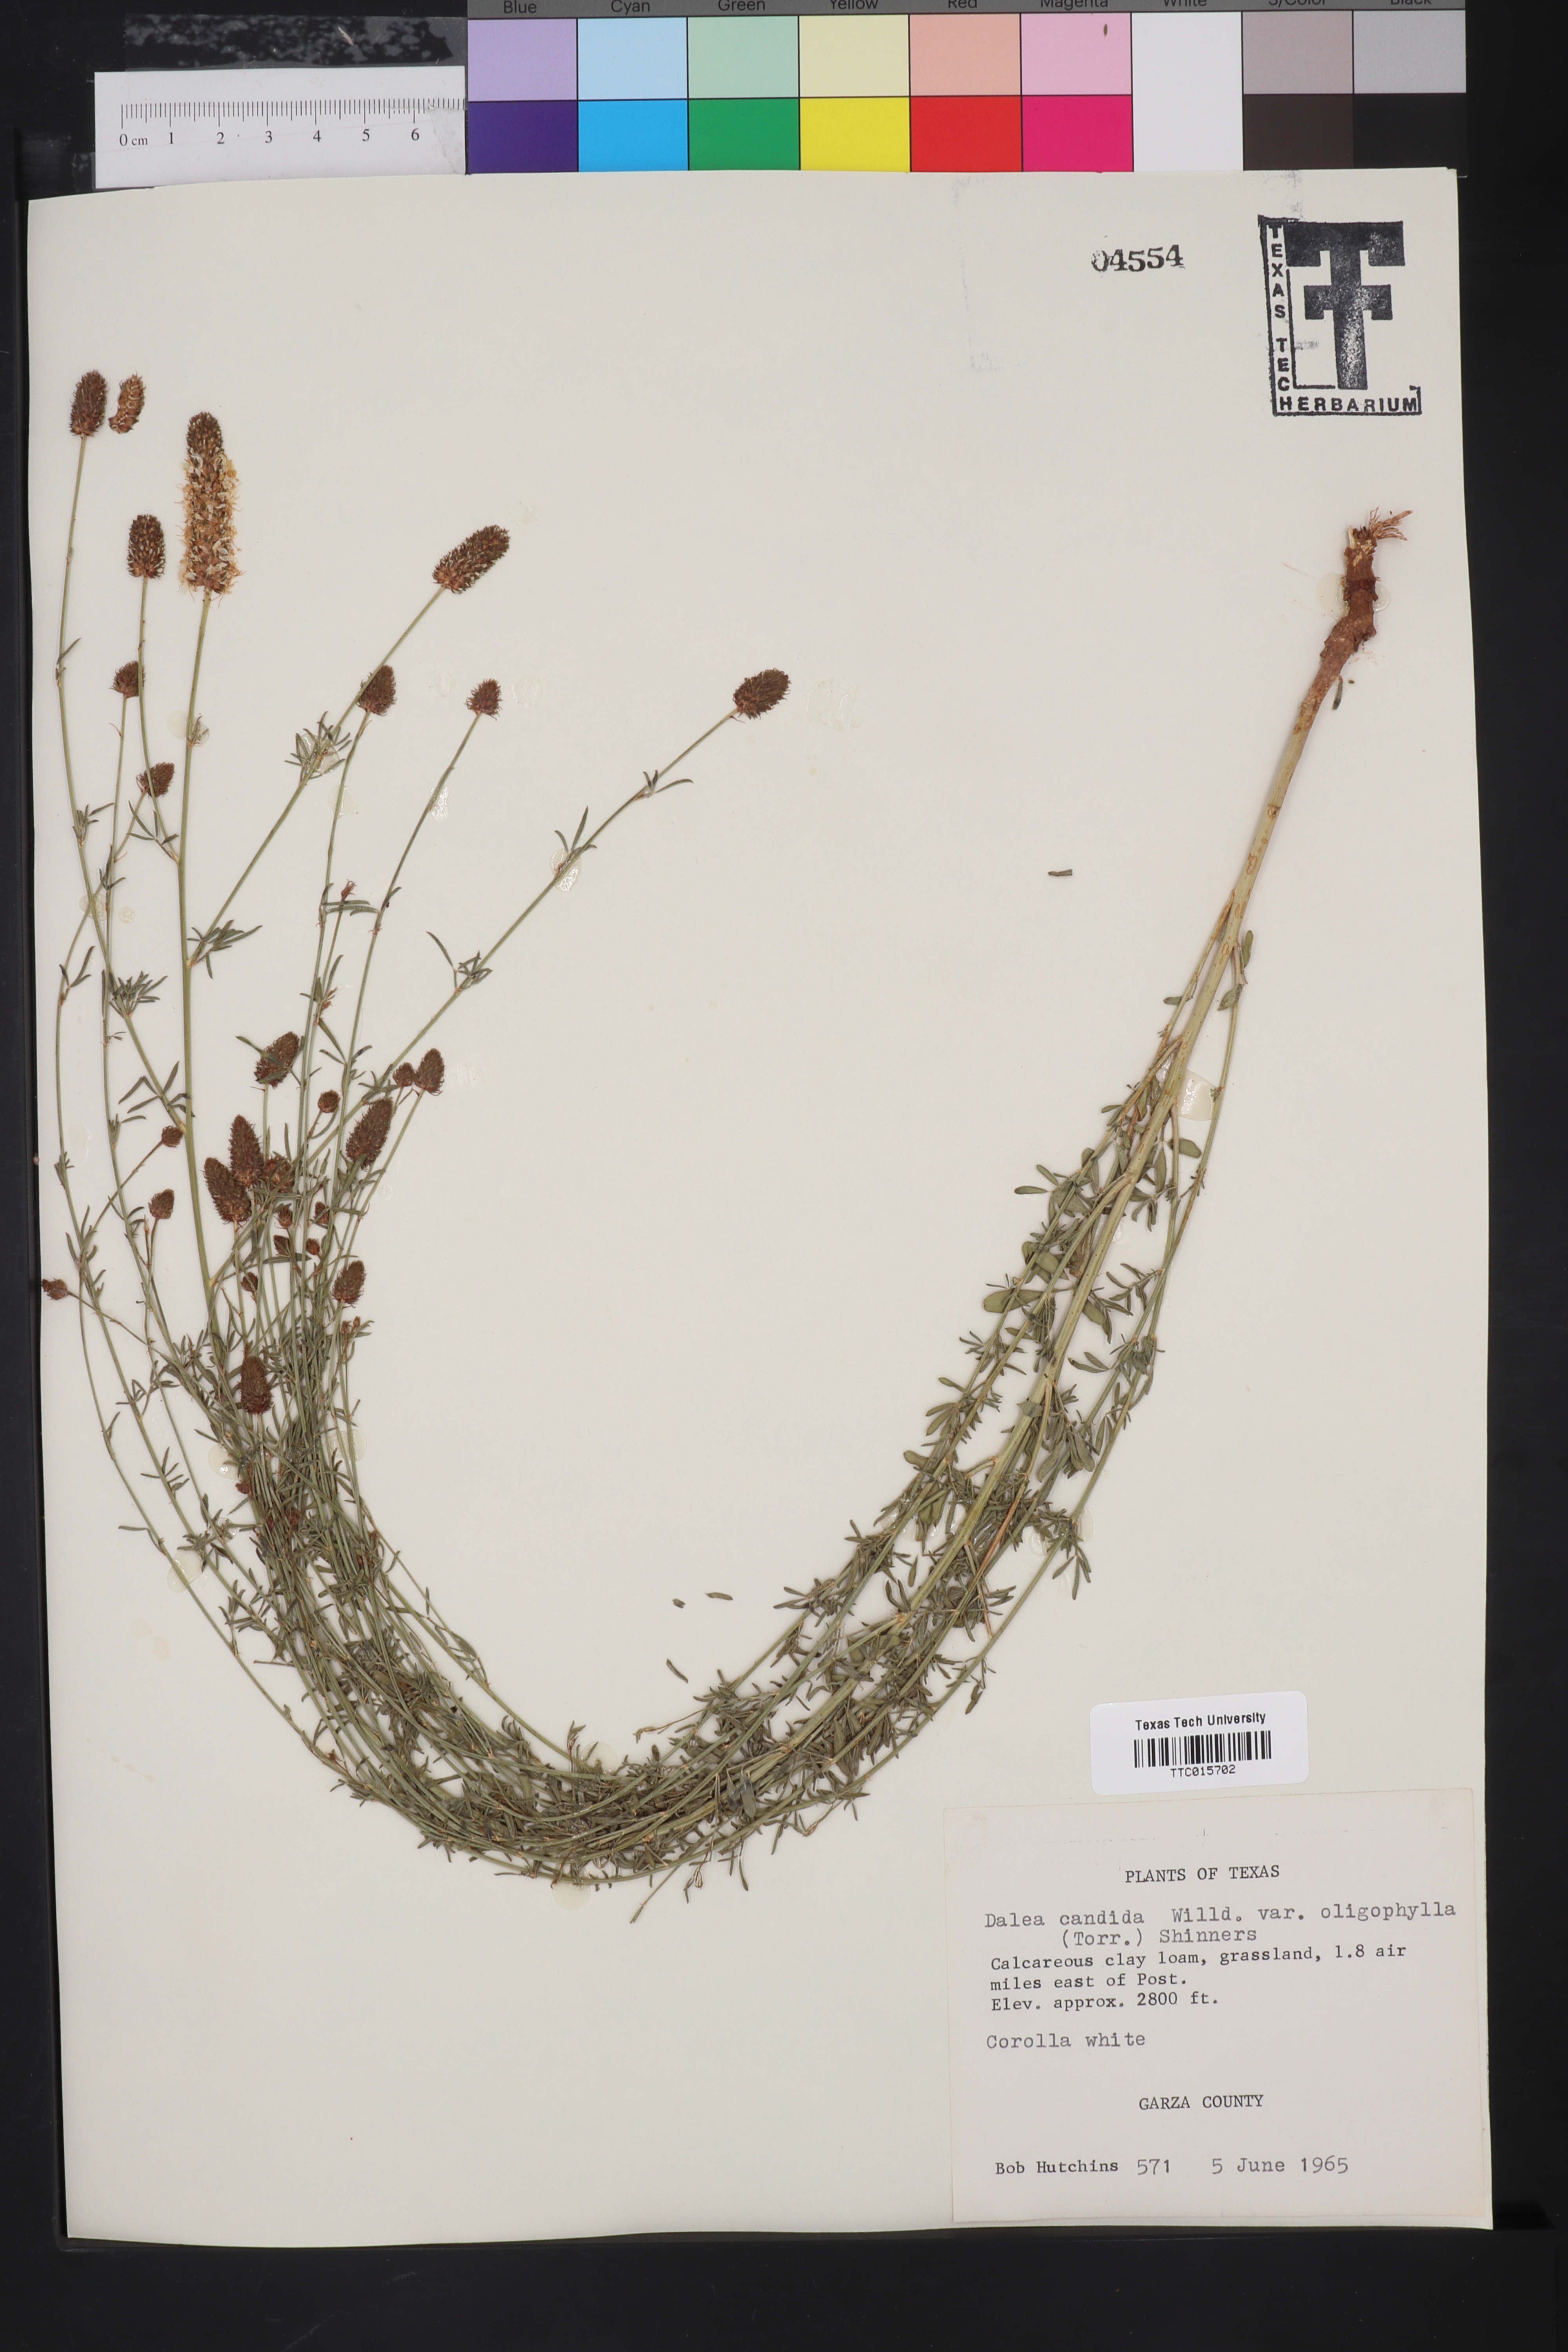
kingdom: Plantae
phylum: Tracheophyta
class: Magnoliopsida
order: Fabales
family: Fabaceae
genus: Petalostemum
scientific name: Petalostemum
